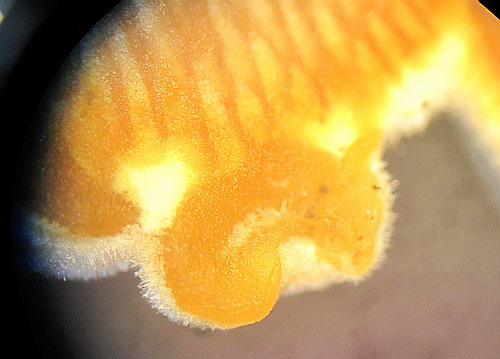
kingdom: Fungi
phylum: Ascomycota
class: Sordariomycetes
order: Hypocreales
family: Hypocreaceae
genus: Hypomyces
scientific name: Hypomyces chrysospermus
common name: gulskimmel-snylteskorpe
